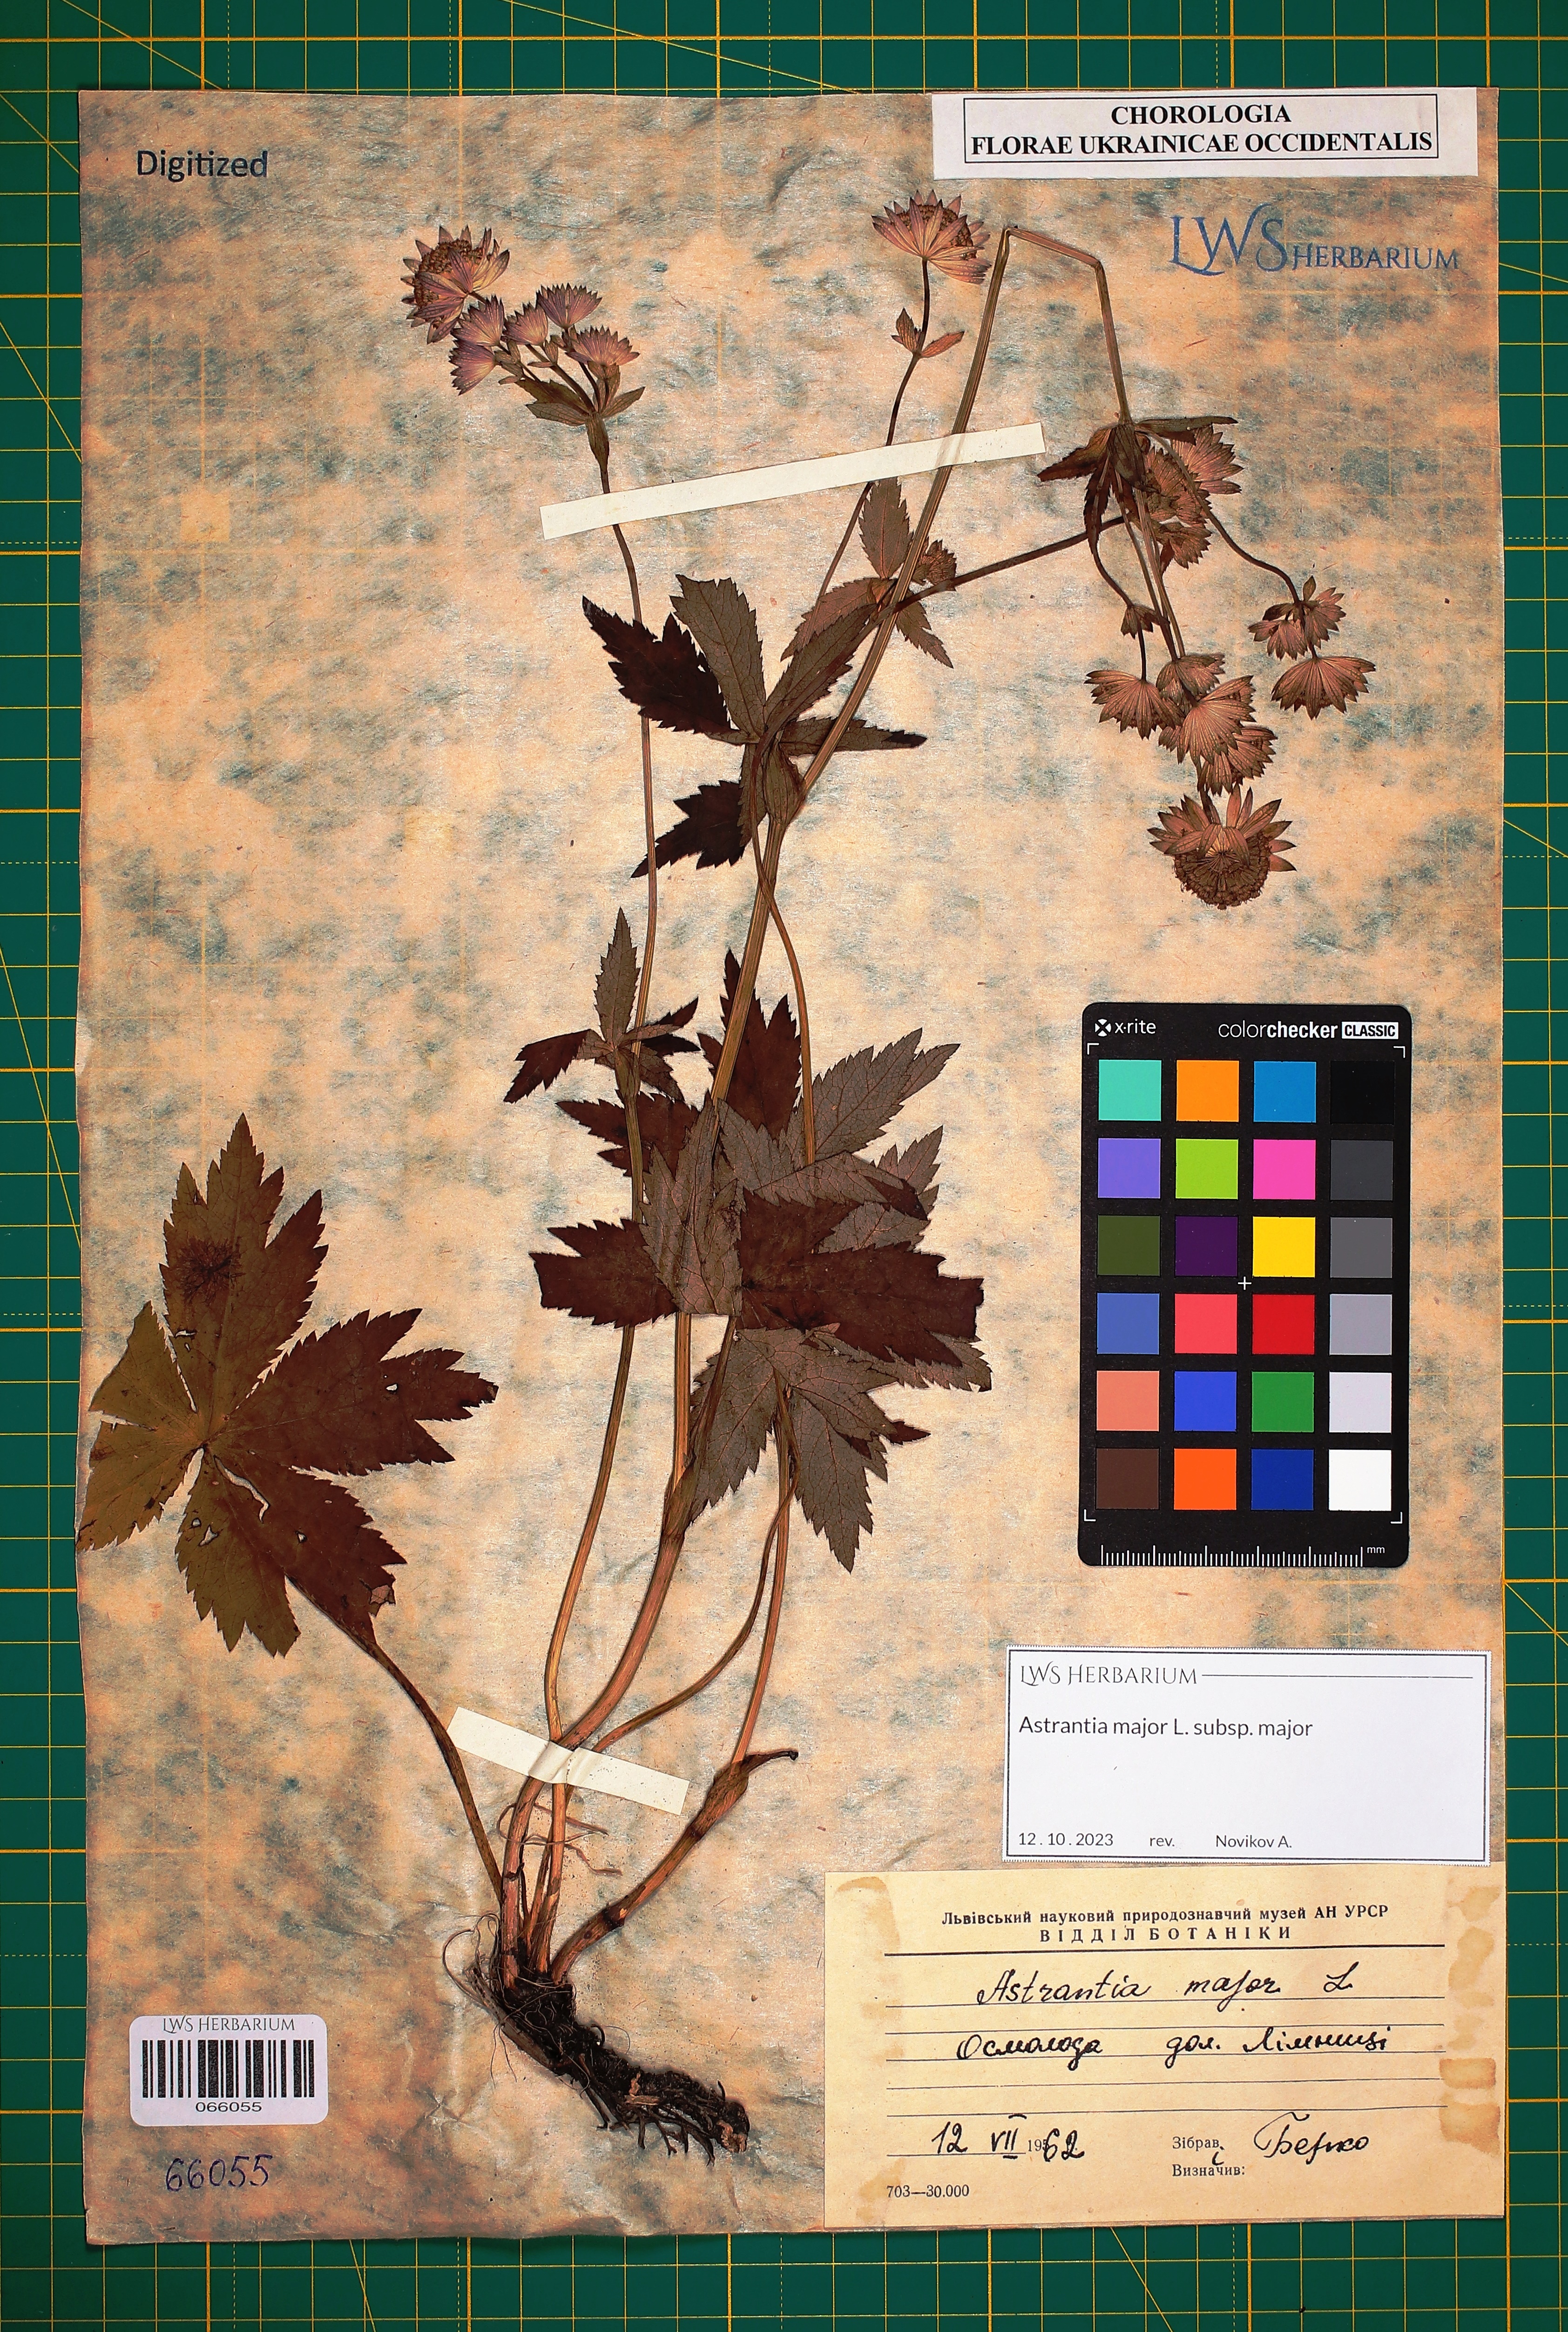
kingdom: Plantae
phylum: Tracheophyta
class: Magnoliopsida
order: Apiales
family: Apiaceae
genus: Astrantia
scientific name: Astrantia major
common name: Greater masterwort
